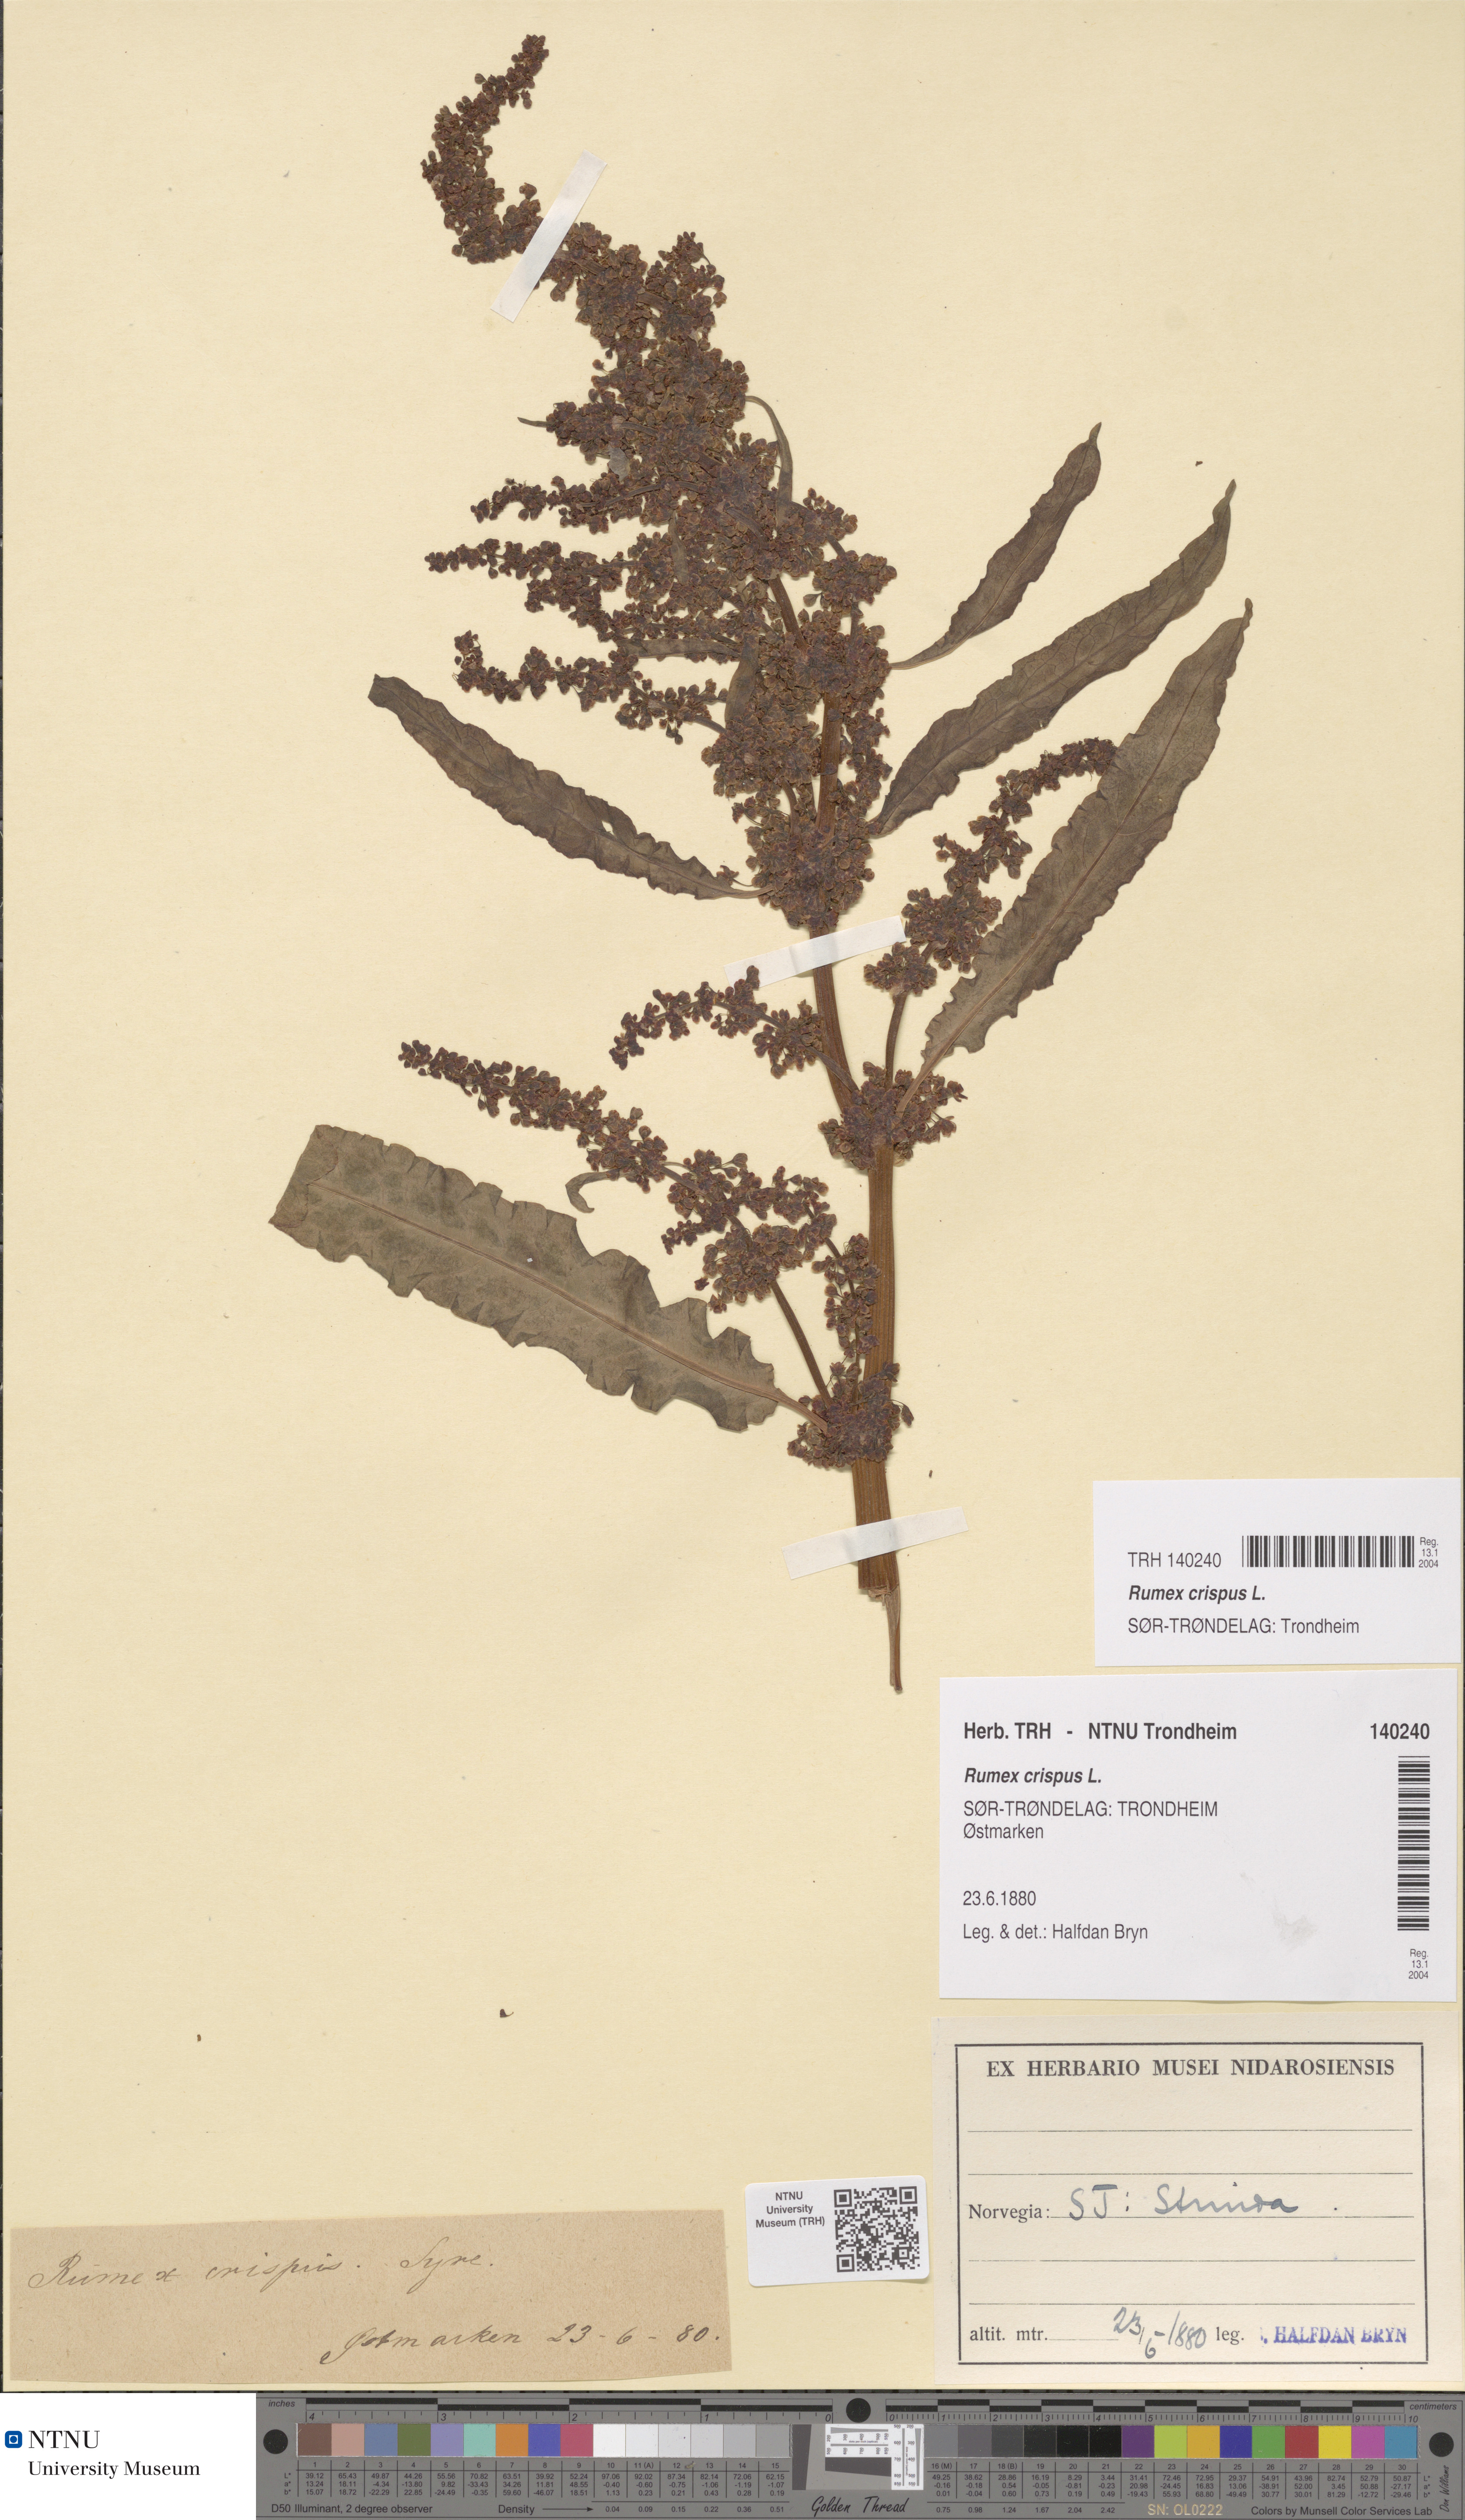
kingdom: Plantae
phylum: Tracheophyta
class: Magnoliopsida
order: Caryophyllales
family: Polygonaceae
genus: Rumex
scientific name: Rumex crispus
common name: Curled dock
